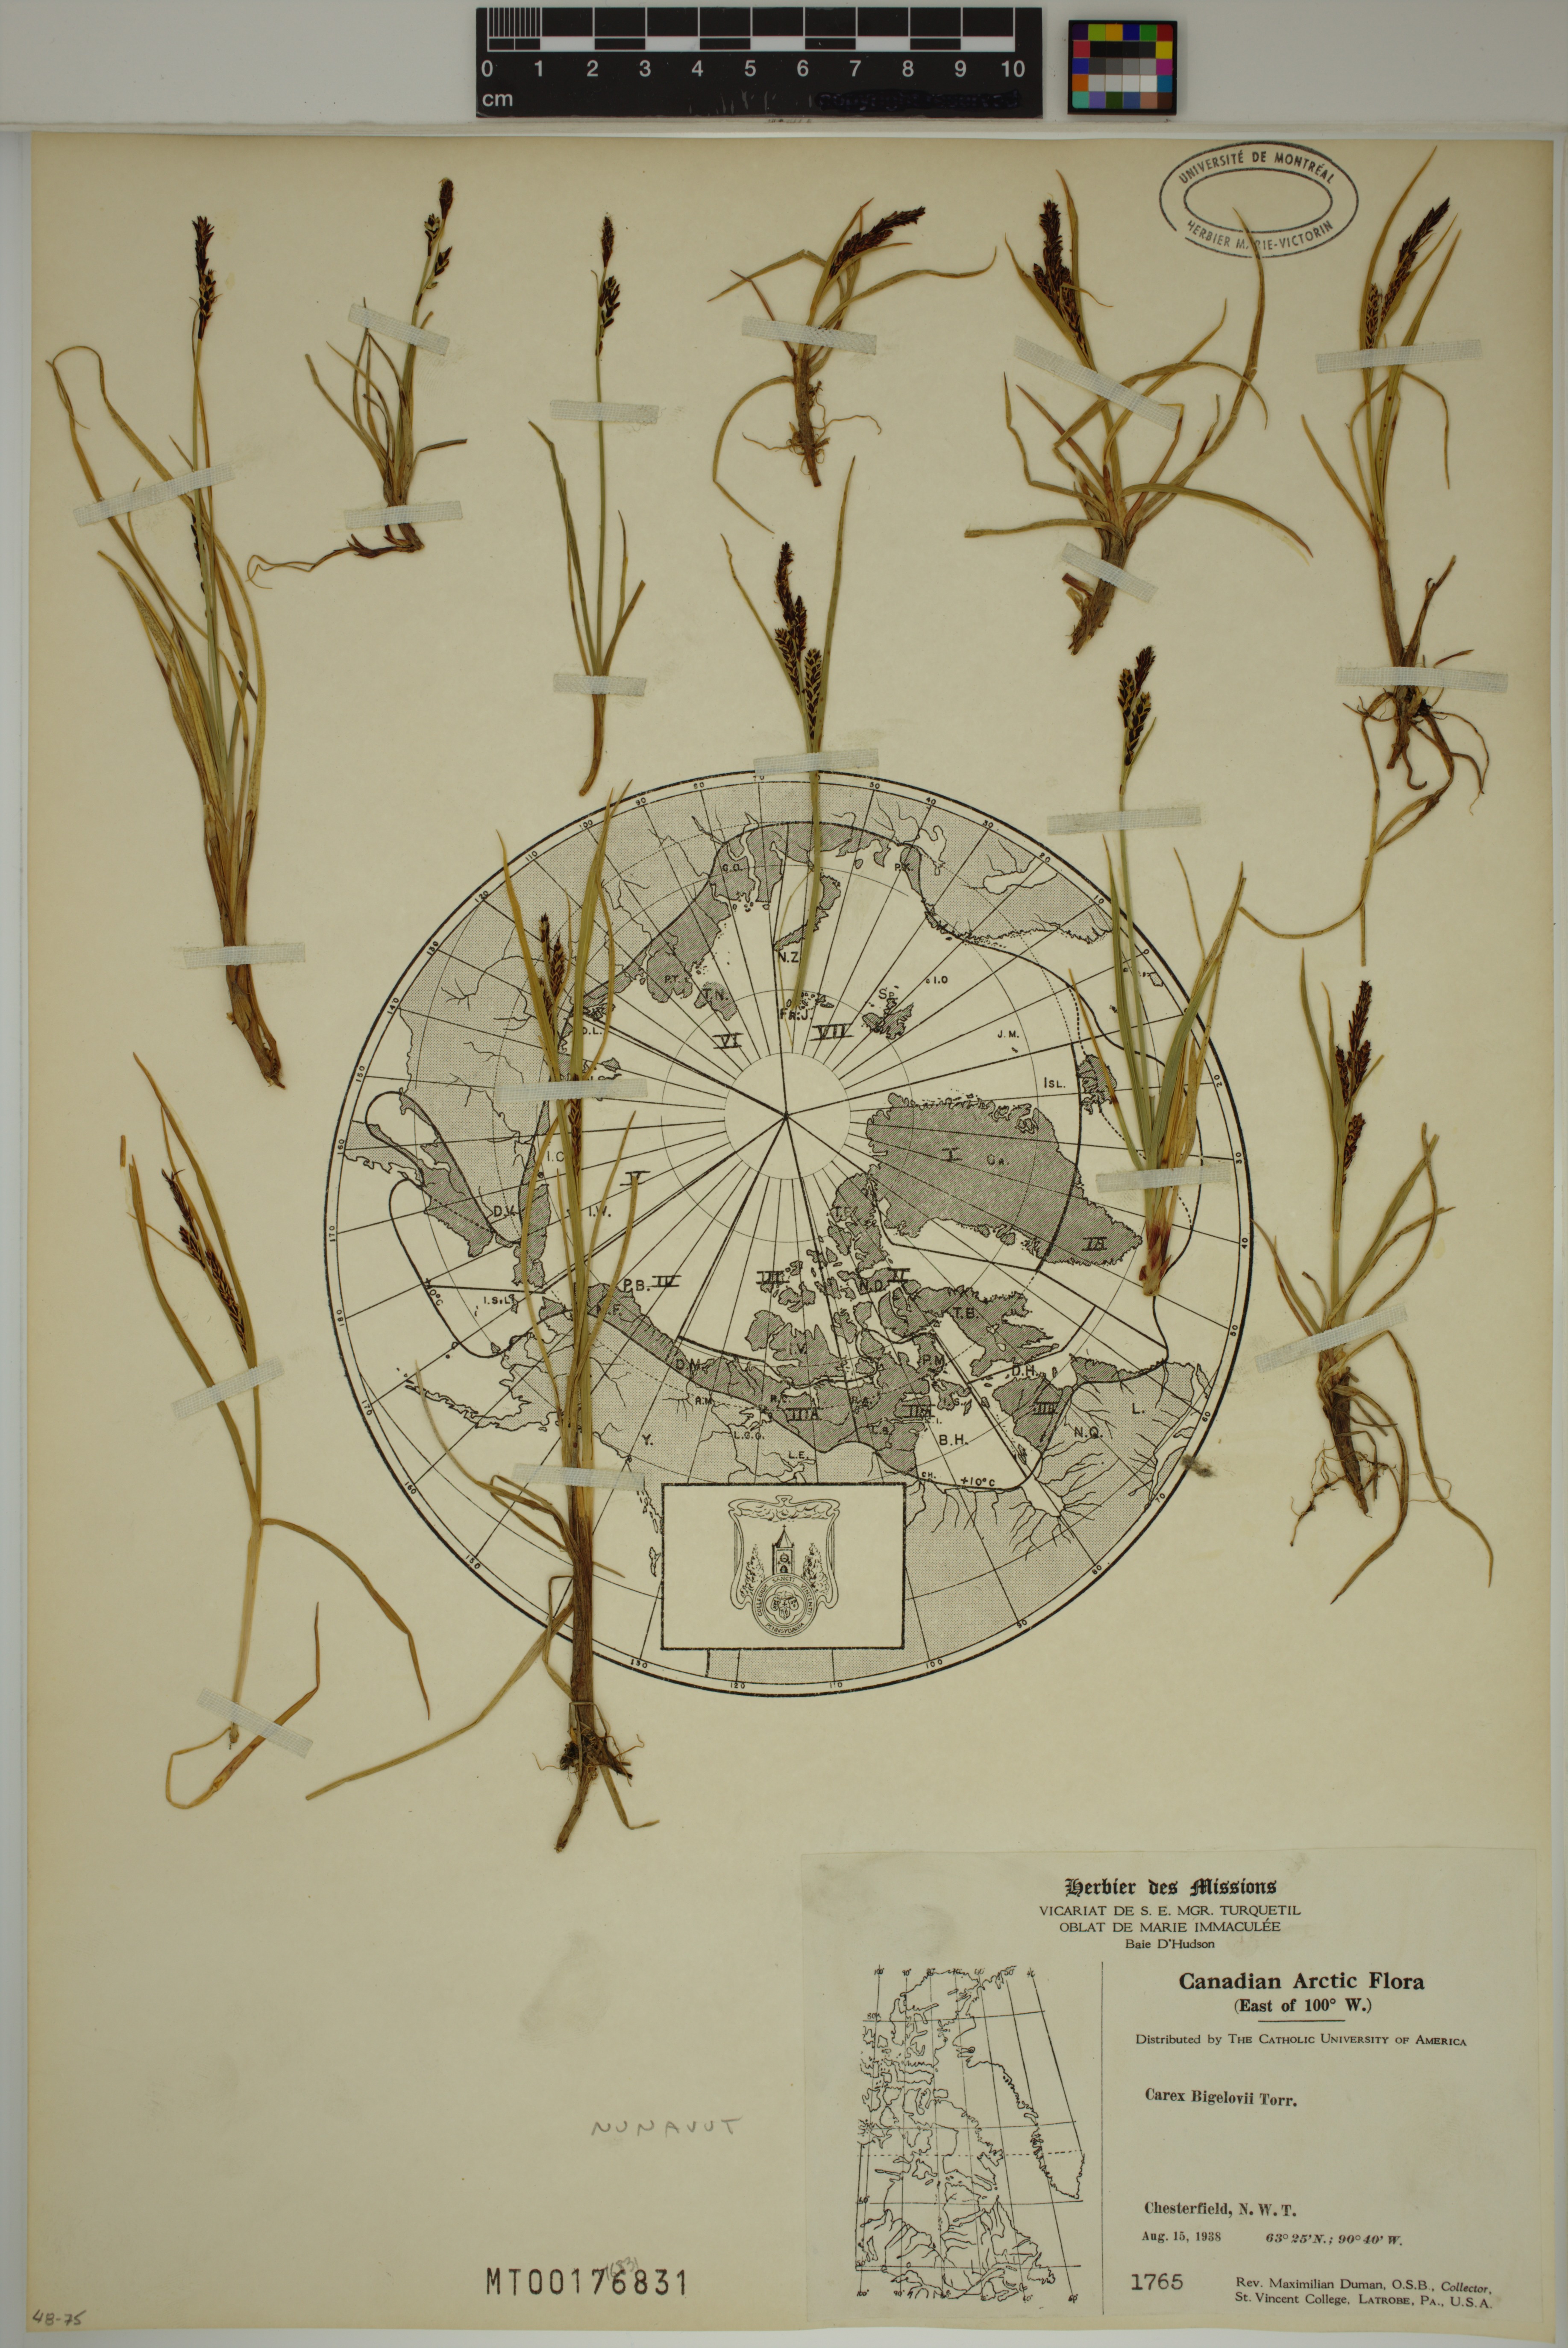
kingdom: Plantae
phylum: Tracheophyta
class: Liliopsida
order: Poales
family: Cyperaceae
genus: Carex
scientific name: Carex bigelowii
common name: Stiff sedge
